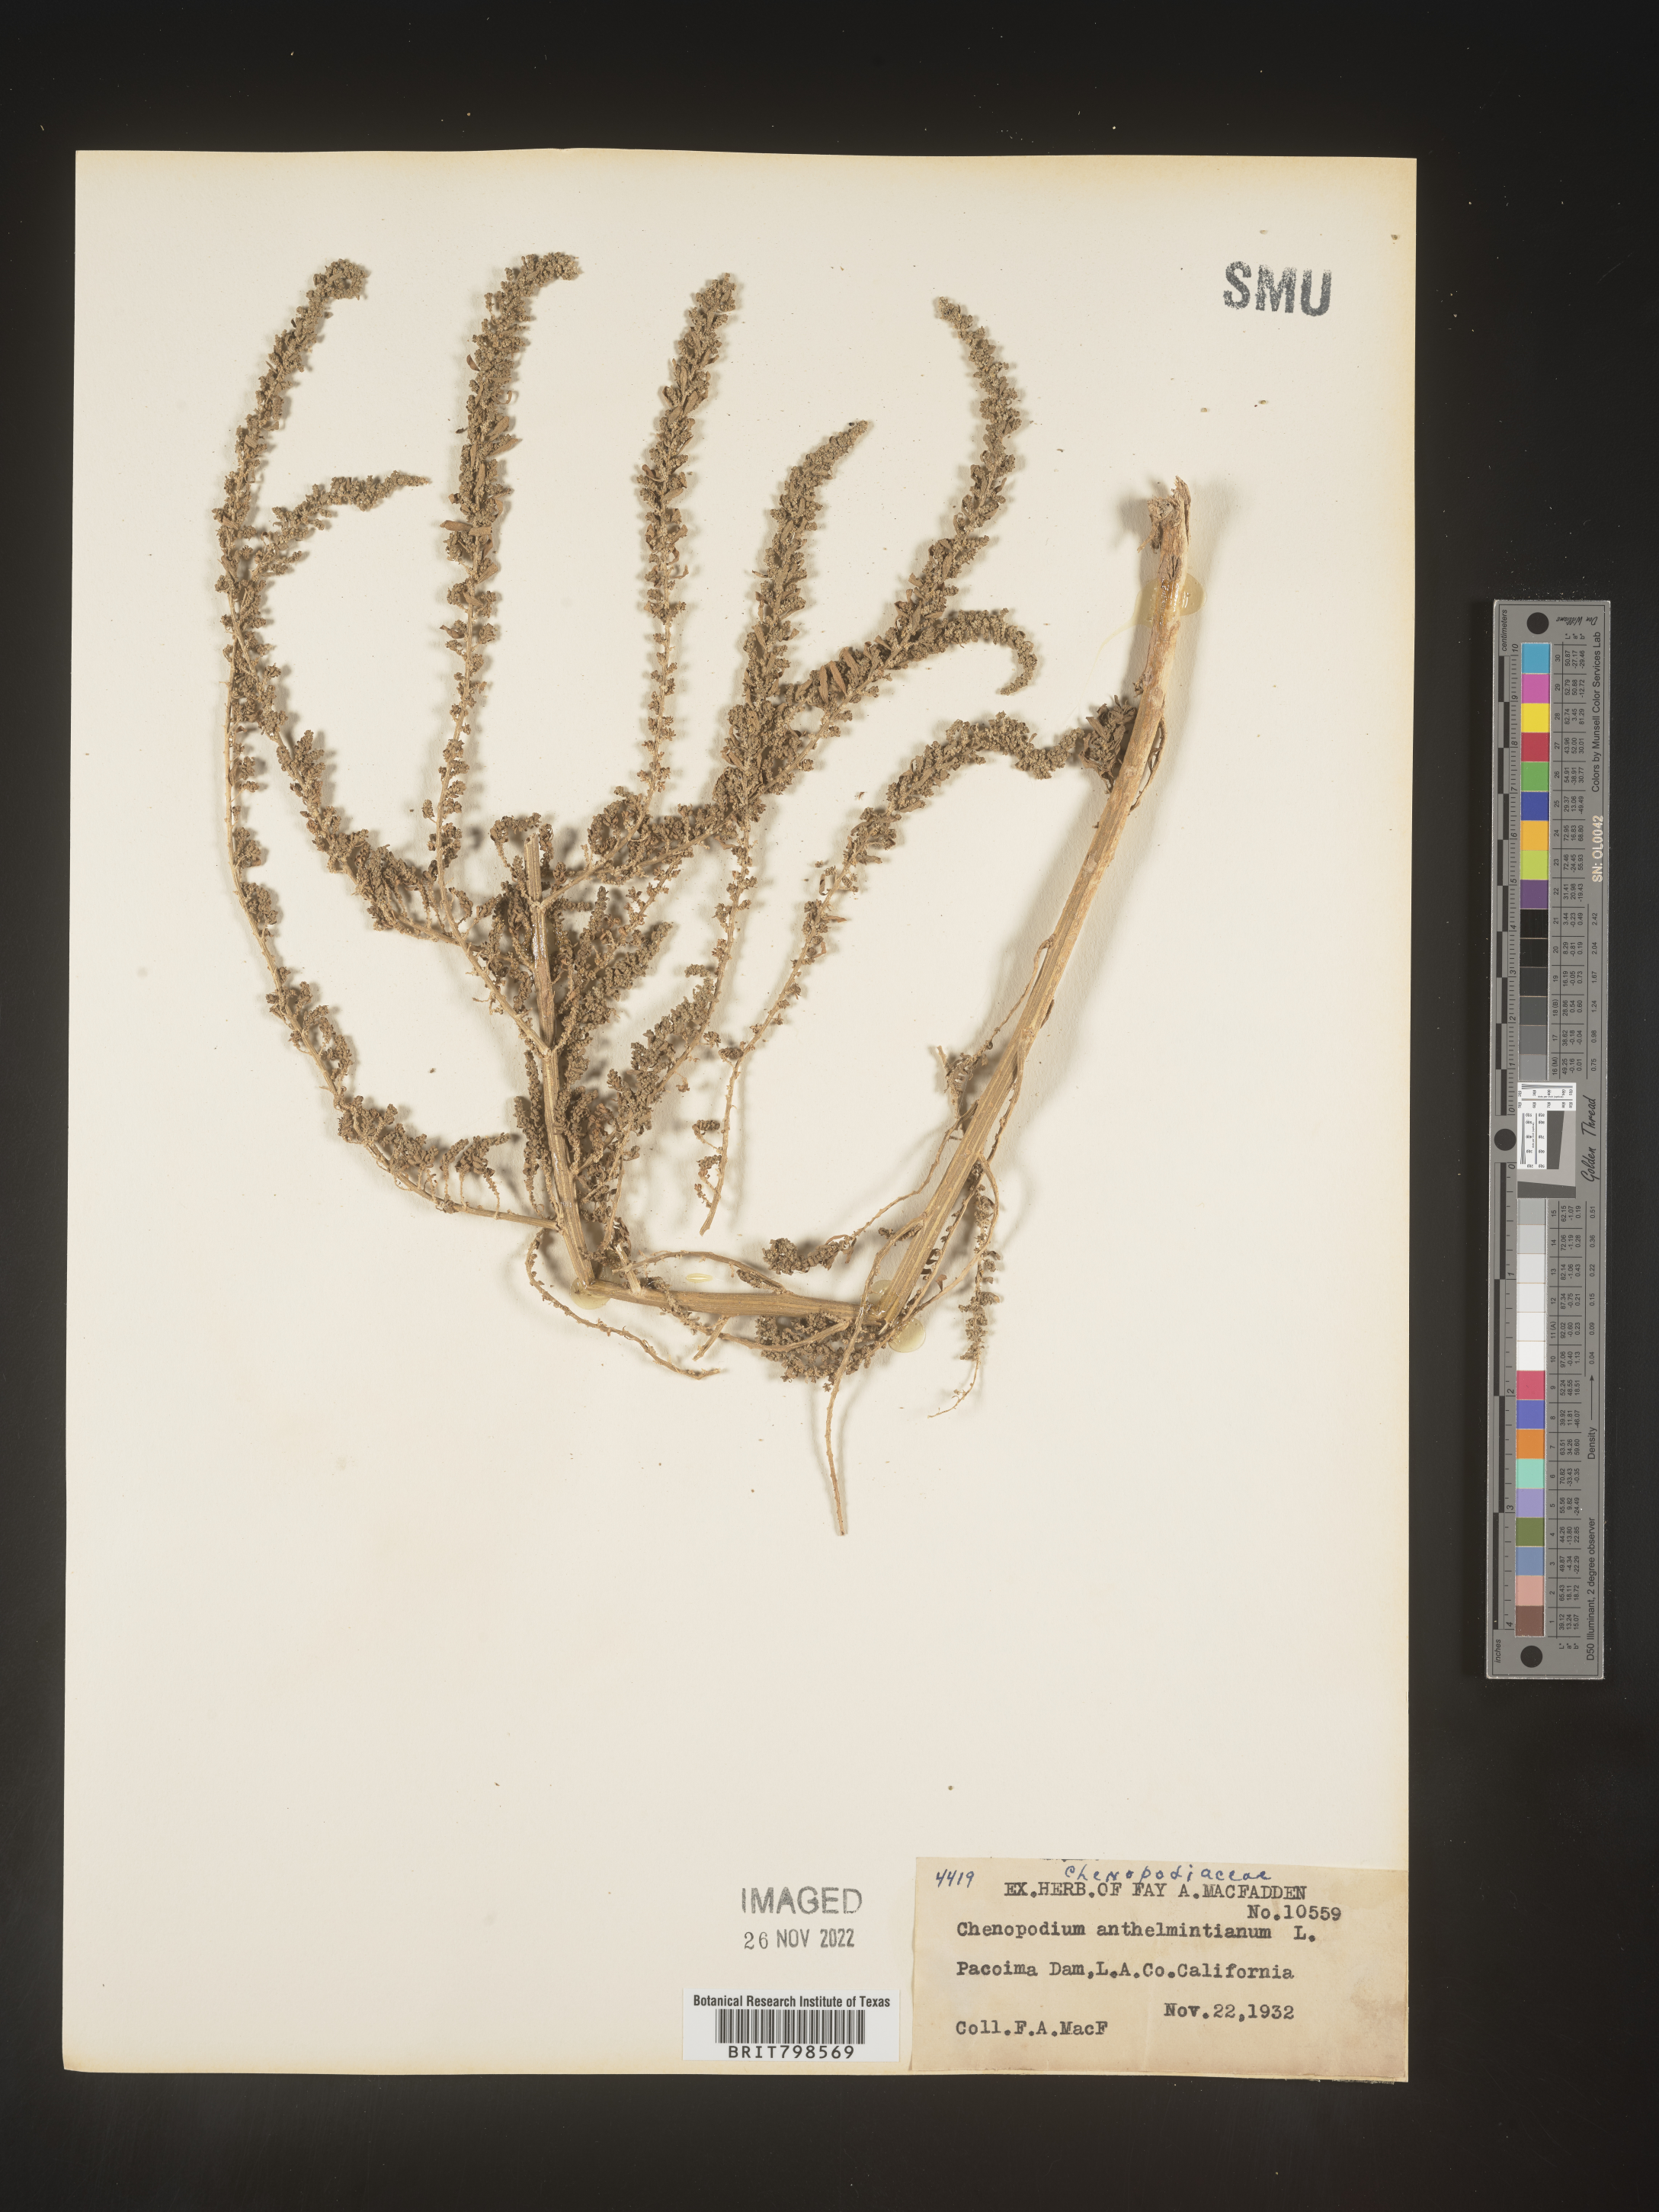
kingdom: Plantae
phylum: Tracheophyta
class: Magnoliopsida
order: Caryophyllales
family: Amaranthaceae
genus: Dysphania
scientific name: Dysphania ambrosioides
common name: Wormseed
